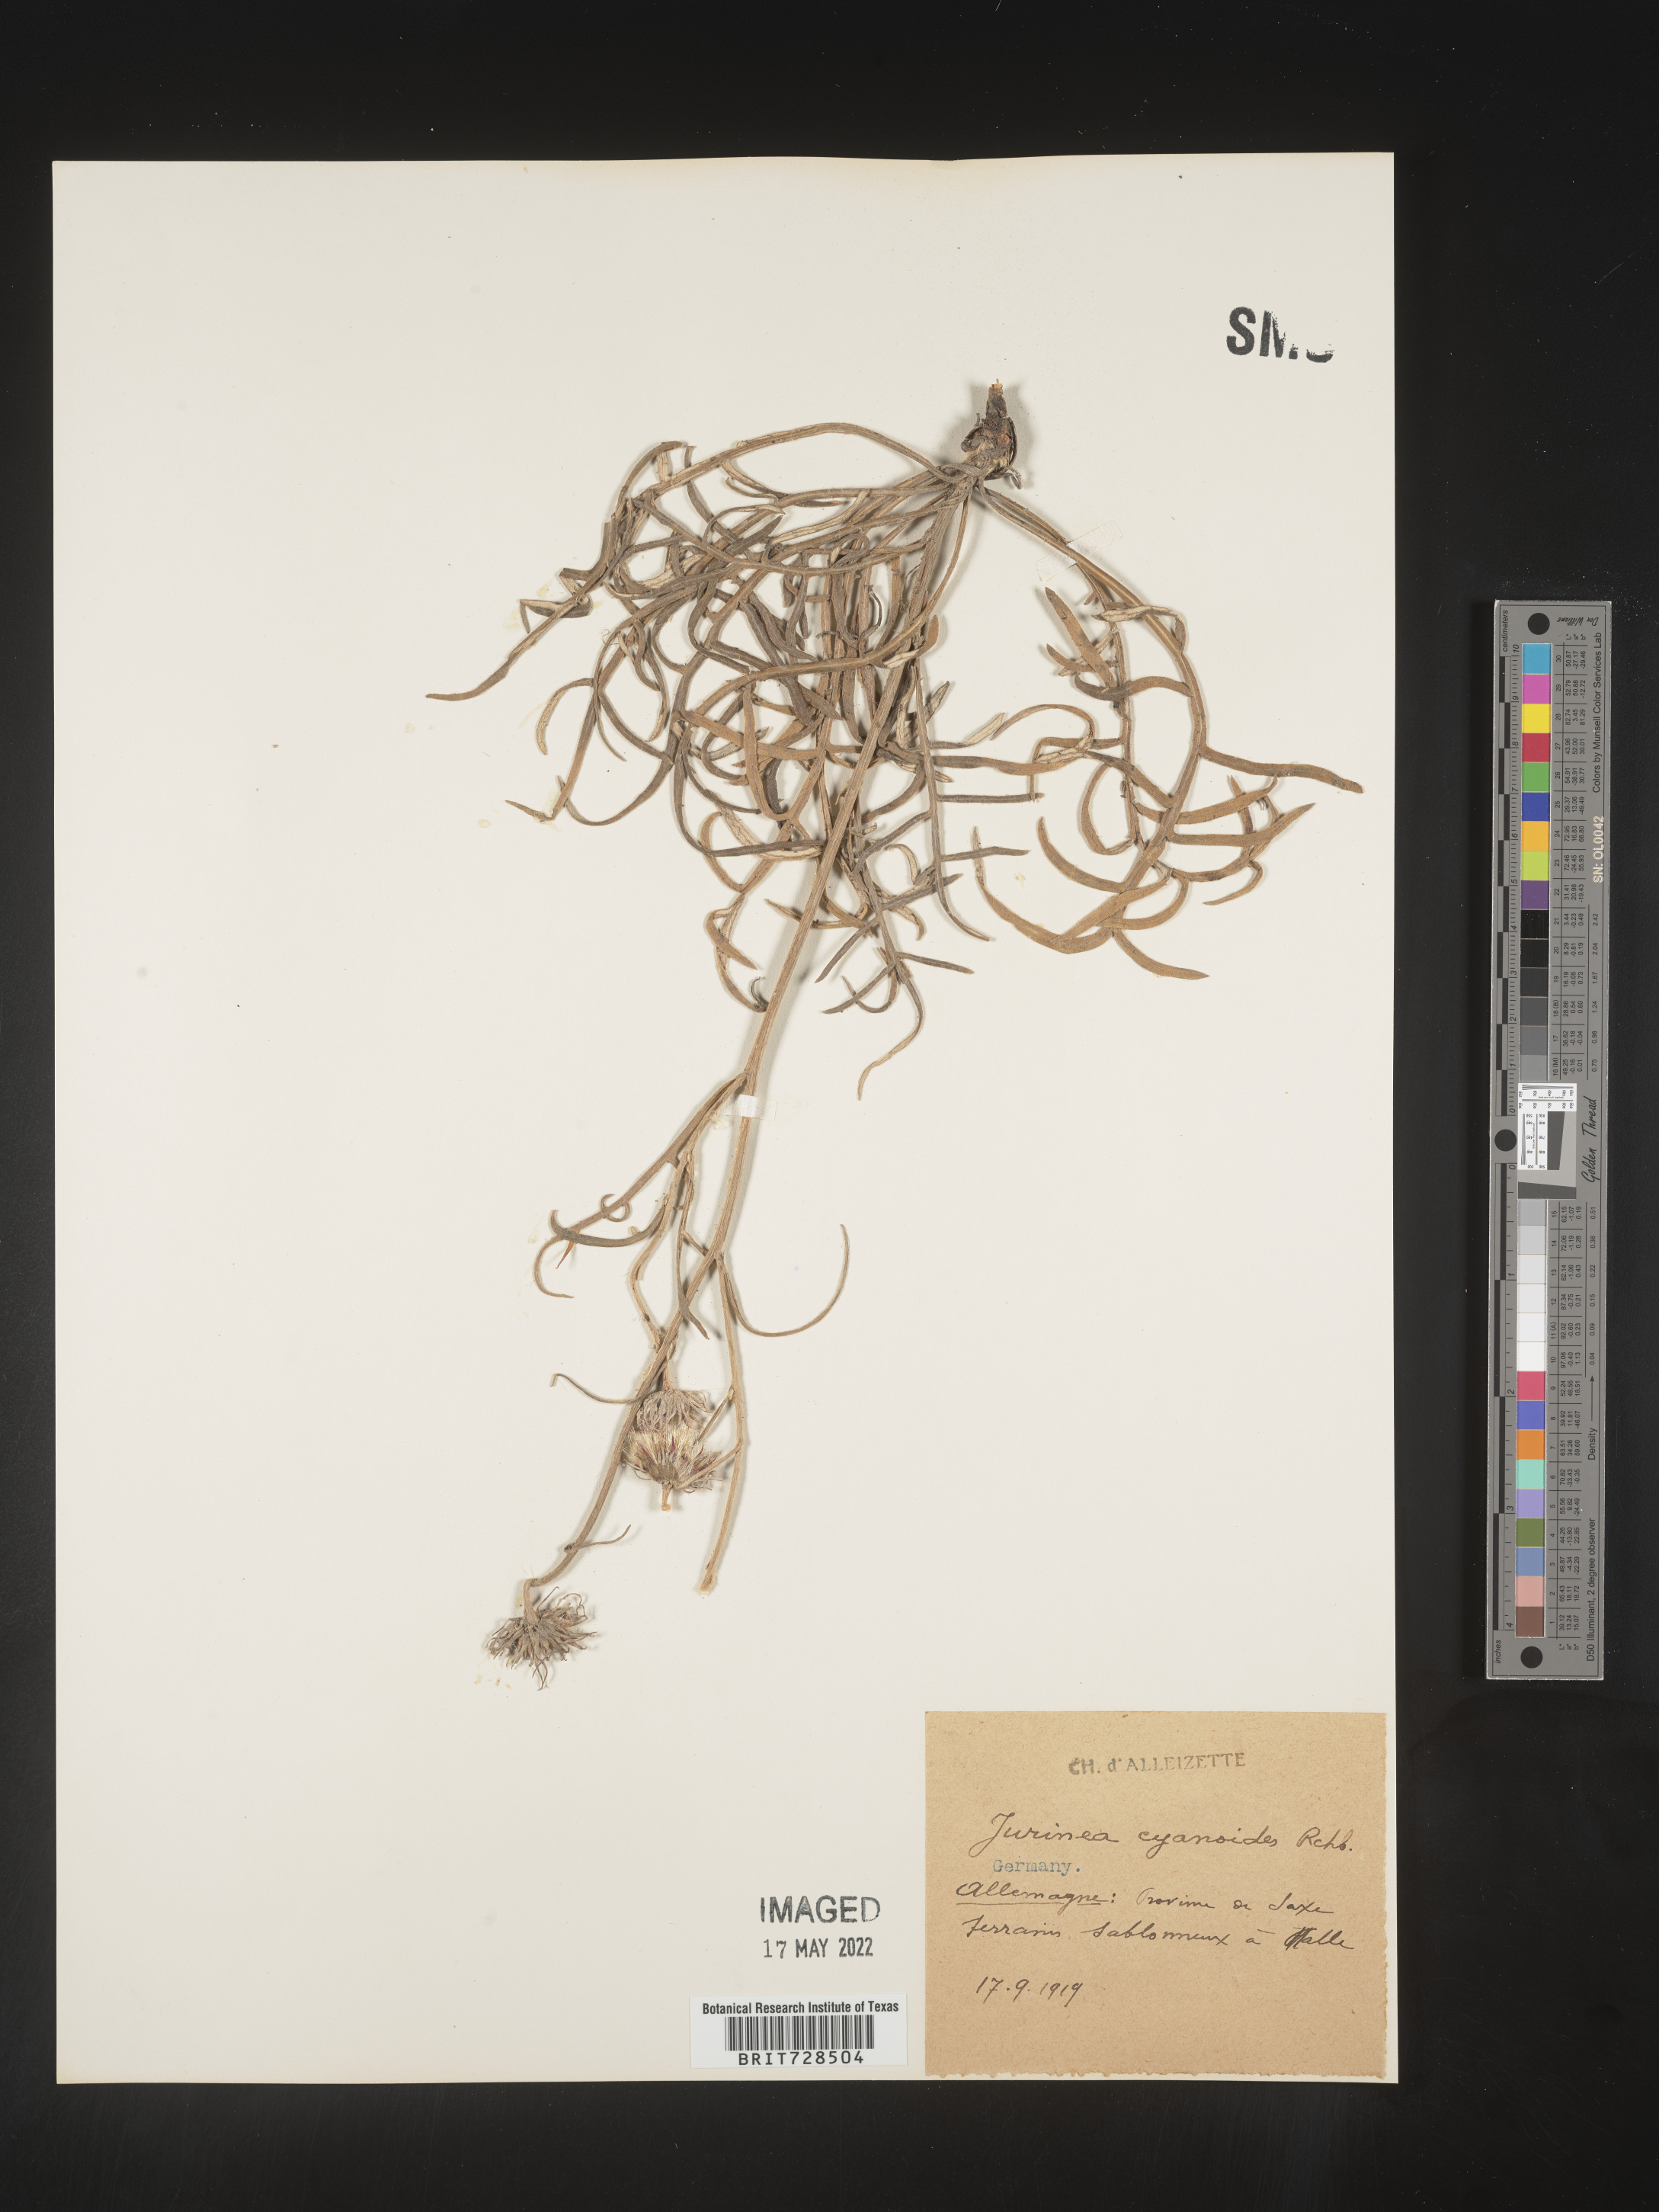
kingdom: Plantae
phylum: Tracheophyta
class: Magnoliopsida
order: Asterales
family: Asteraceae
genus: Jurinea
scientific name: Jurinea
